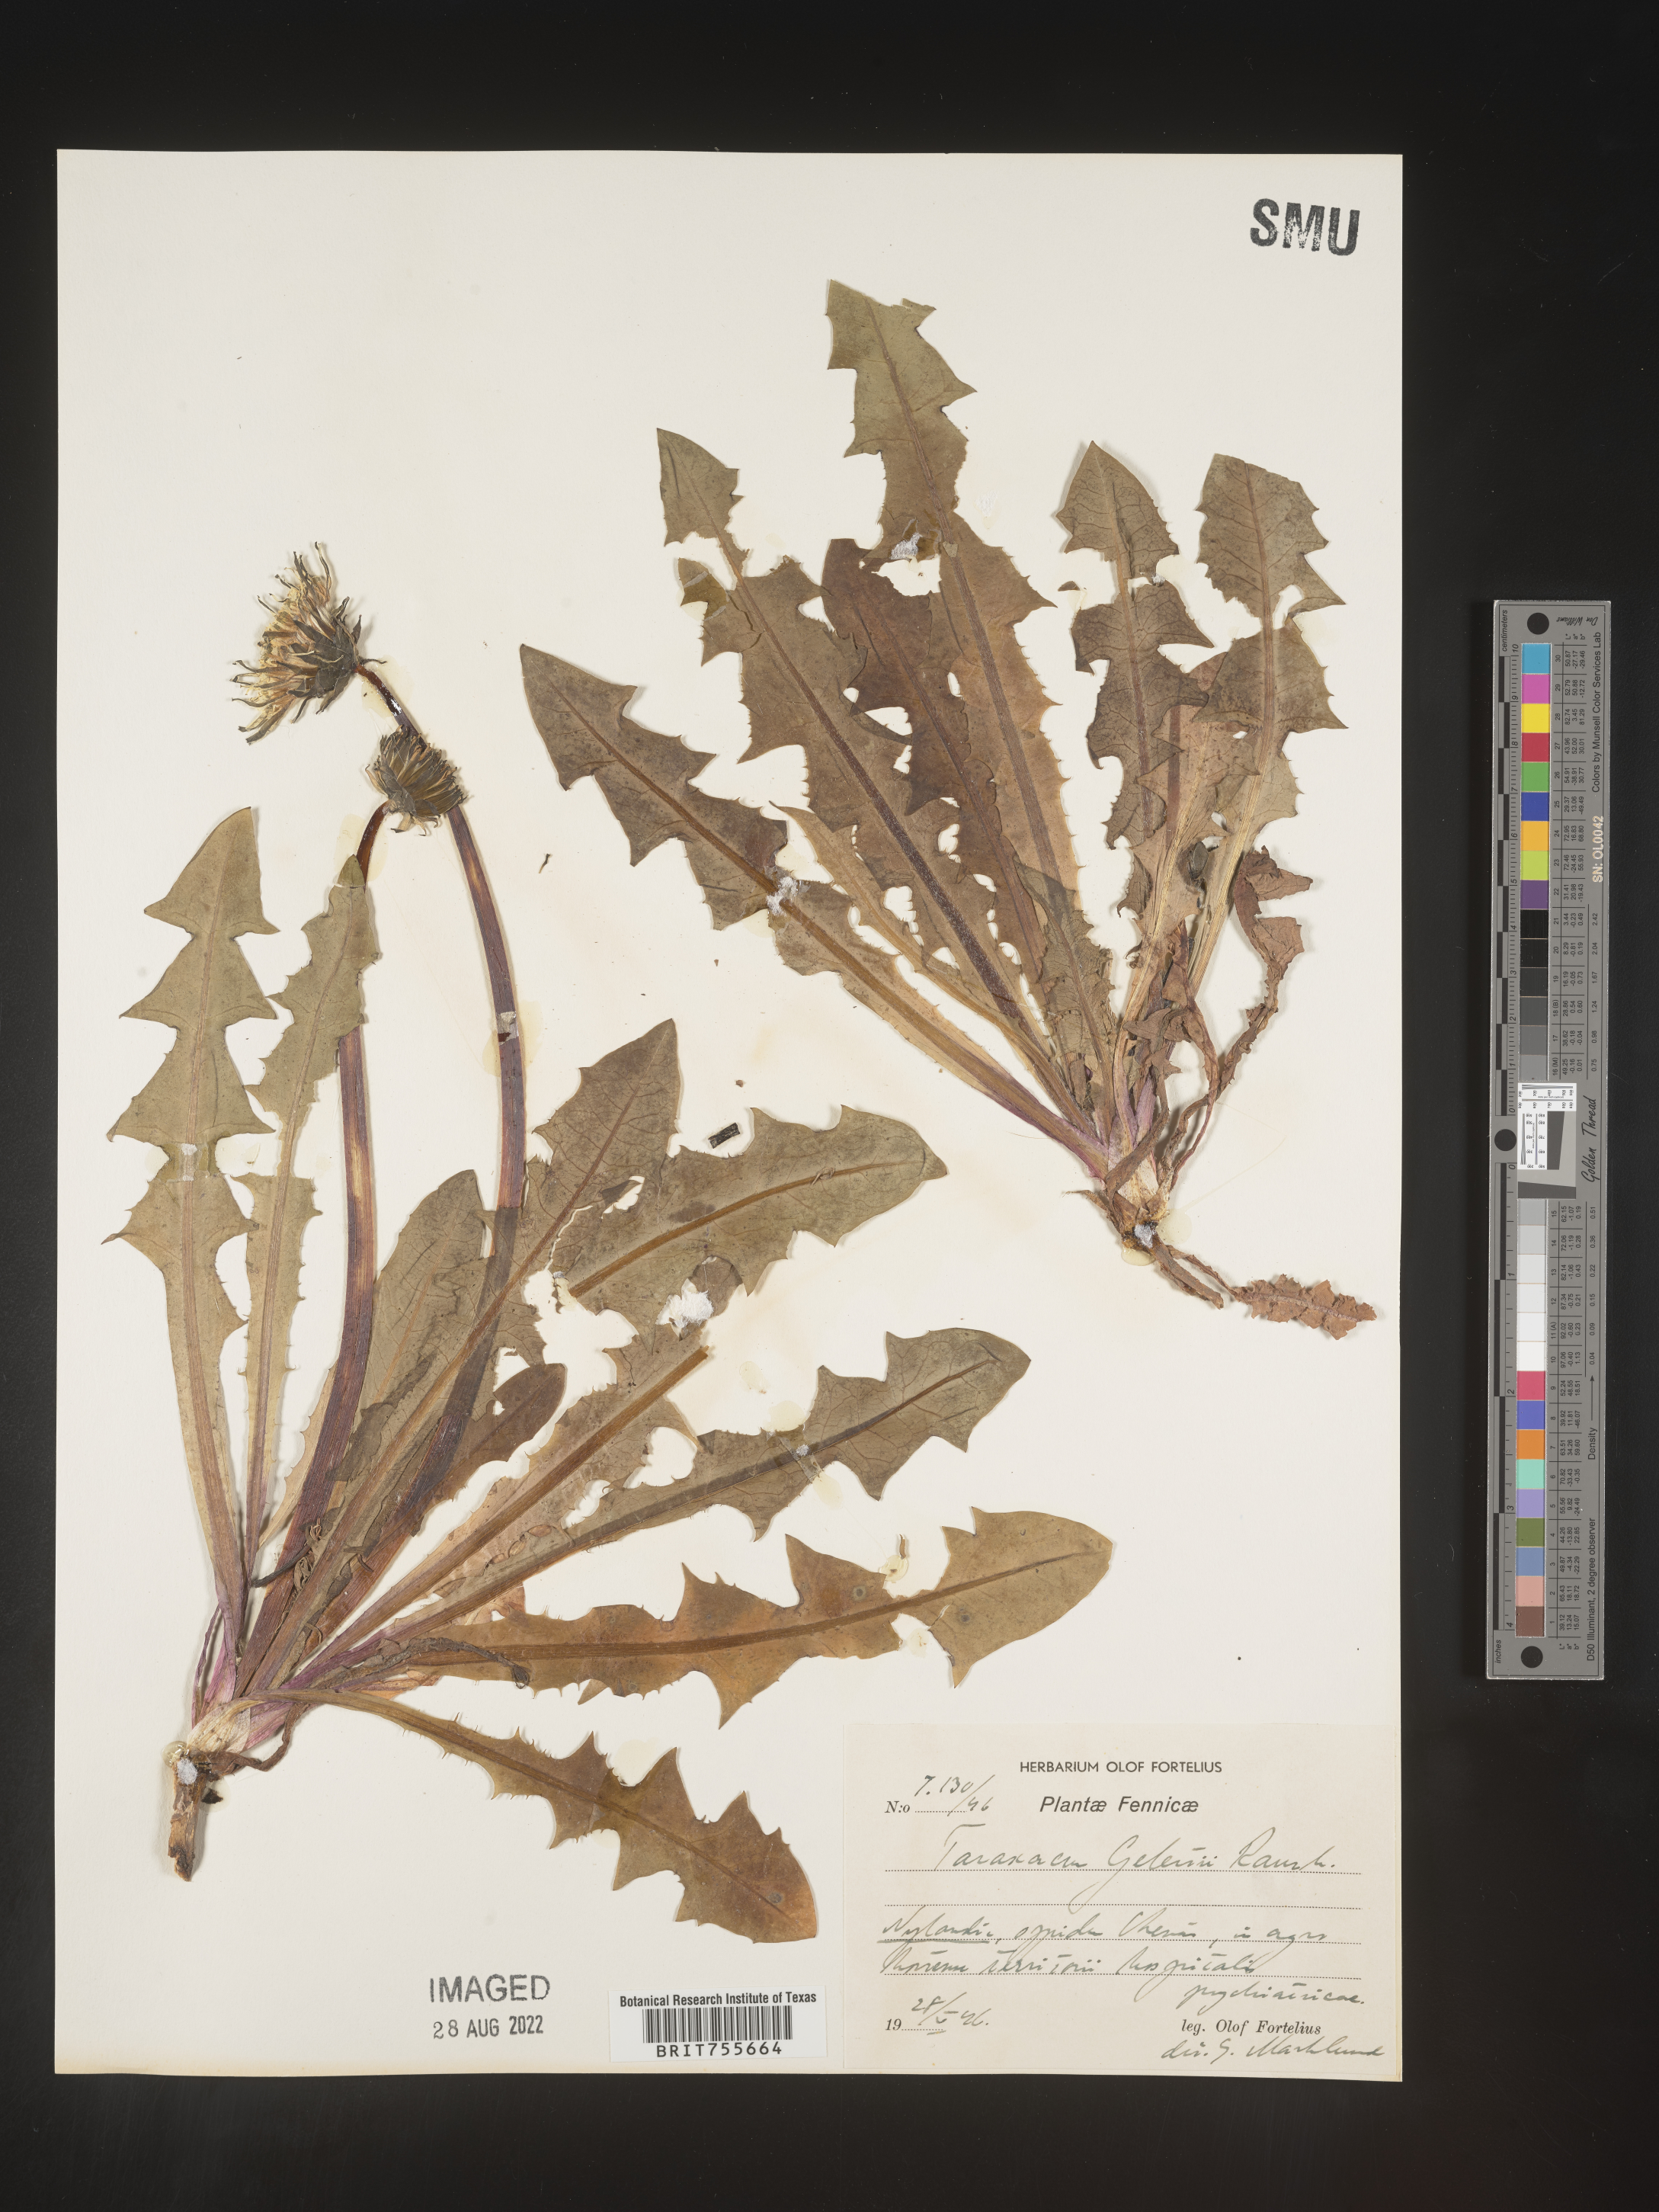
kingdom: Plantae
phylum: Tracheophyta
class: Magnoliopsida
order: Asterales
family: Asteraceae
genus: Taraxacum
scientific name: Taraxacum
